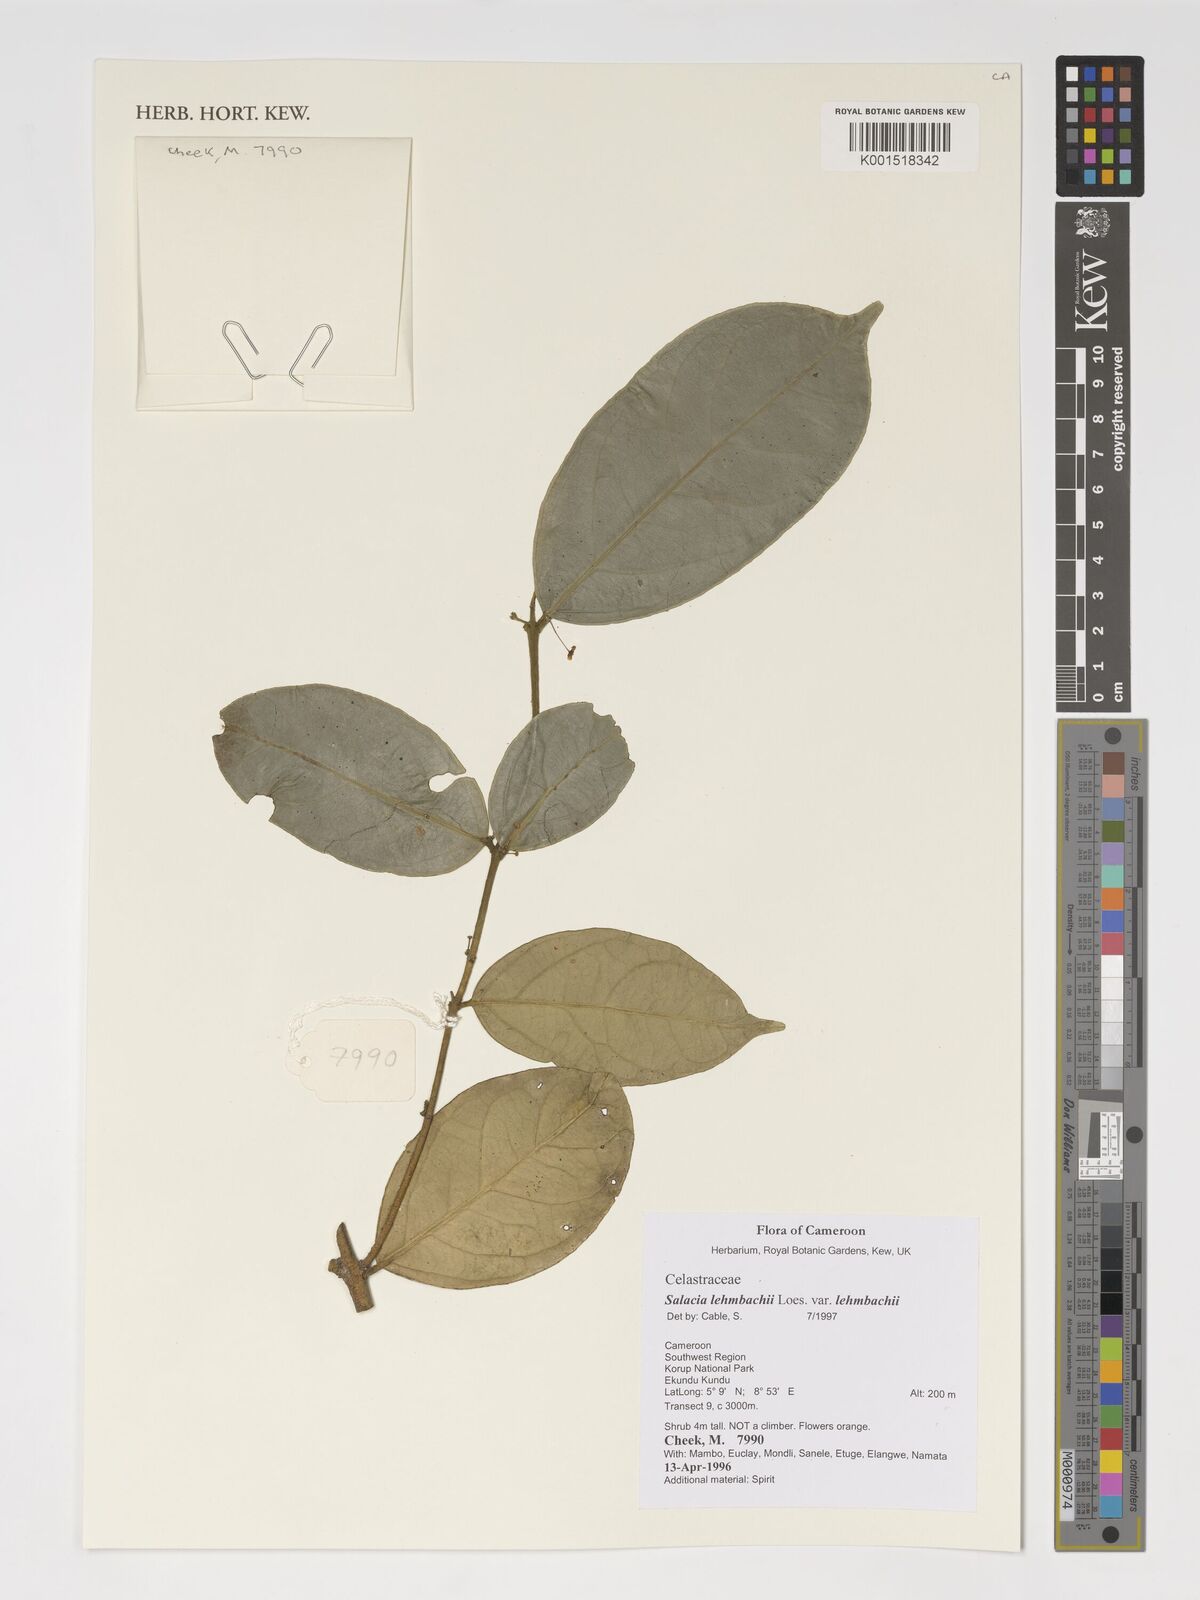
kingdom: Plantae
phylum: Tracheophyta
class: Magnoliopsida
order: Celastrales
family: Celastraceae
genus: Salacia
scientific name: Salacia lehmbachii
